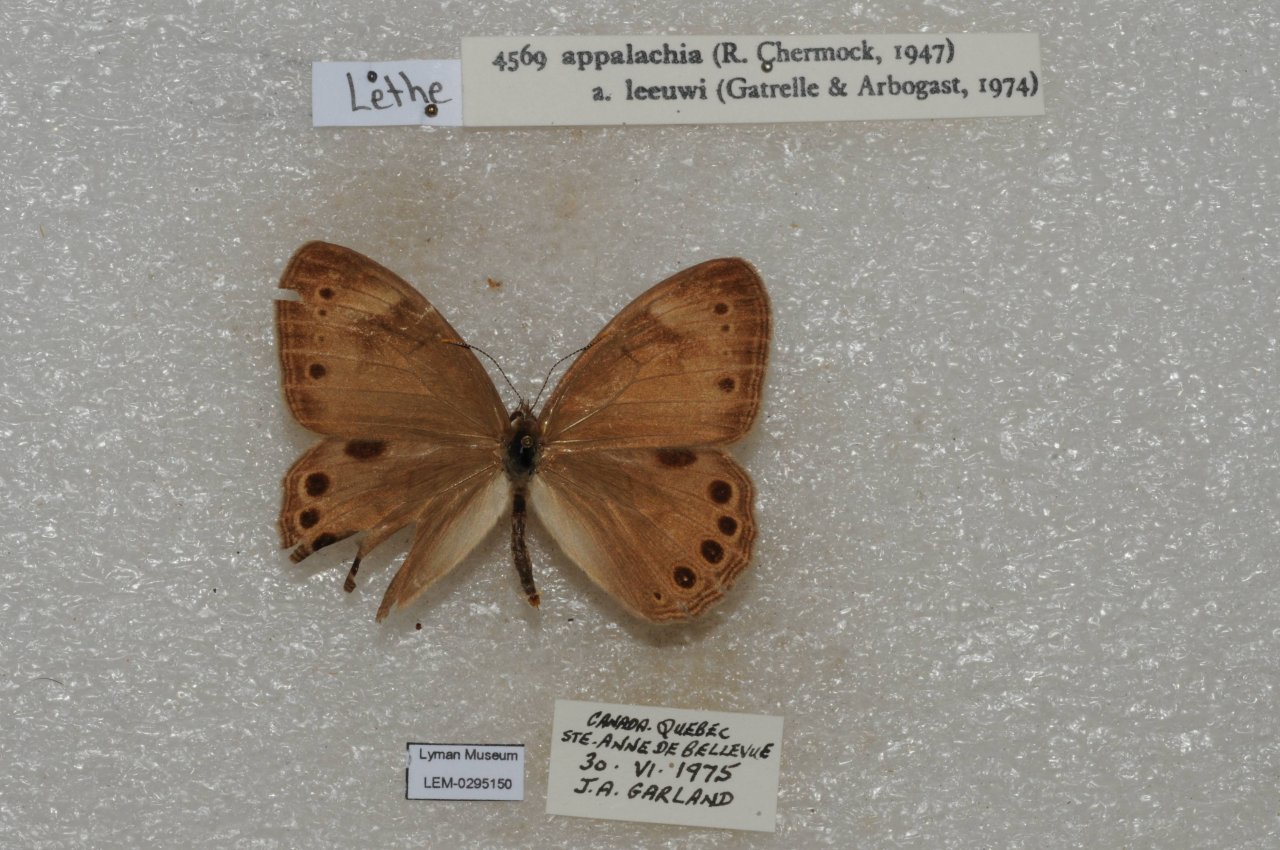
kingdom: Animalia
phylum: Arthropoda
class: Insecta
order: Lepidoptera
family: Nymphalidae
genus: Lethe
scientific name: Lethe eurydice
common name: Eyed Brown
